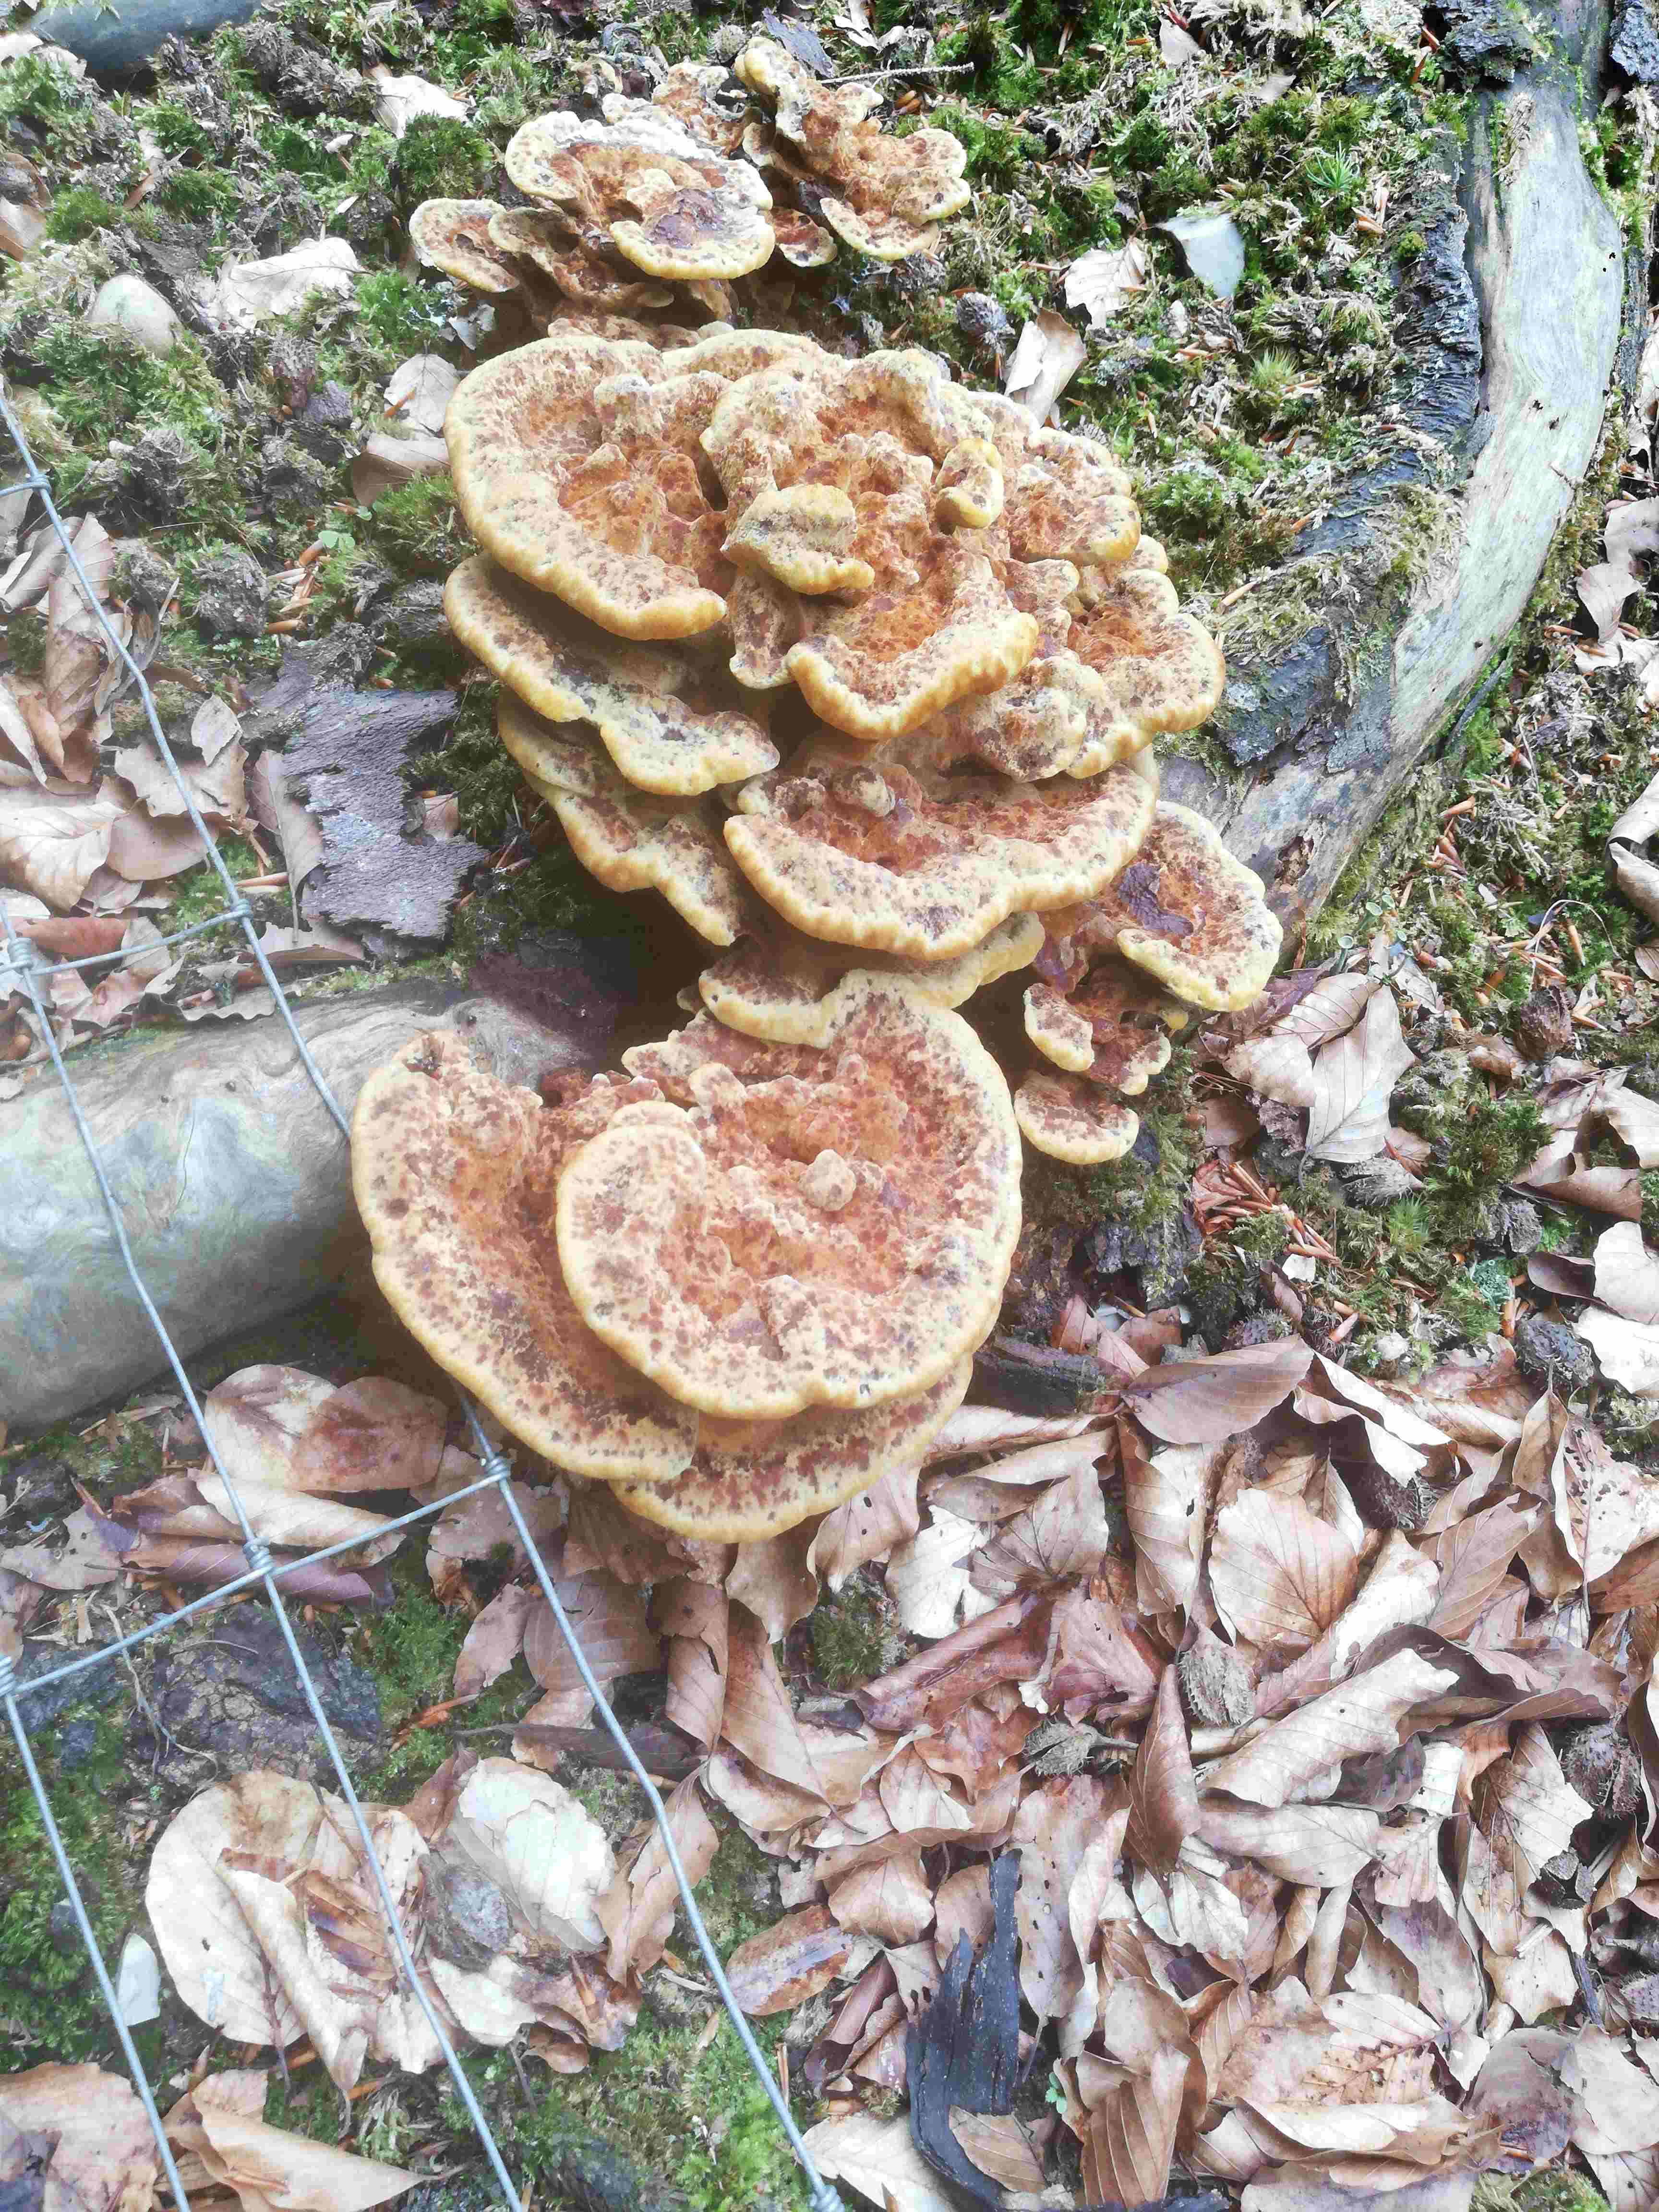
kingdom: Fungi
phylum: Basidiomycota
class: Agaricomycetes
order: Polyporales
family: Laetiporaceae
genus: Phaeolus
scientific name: Phaeolus schweinitzii
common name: brunporesvamp
